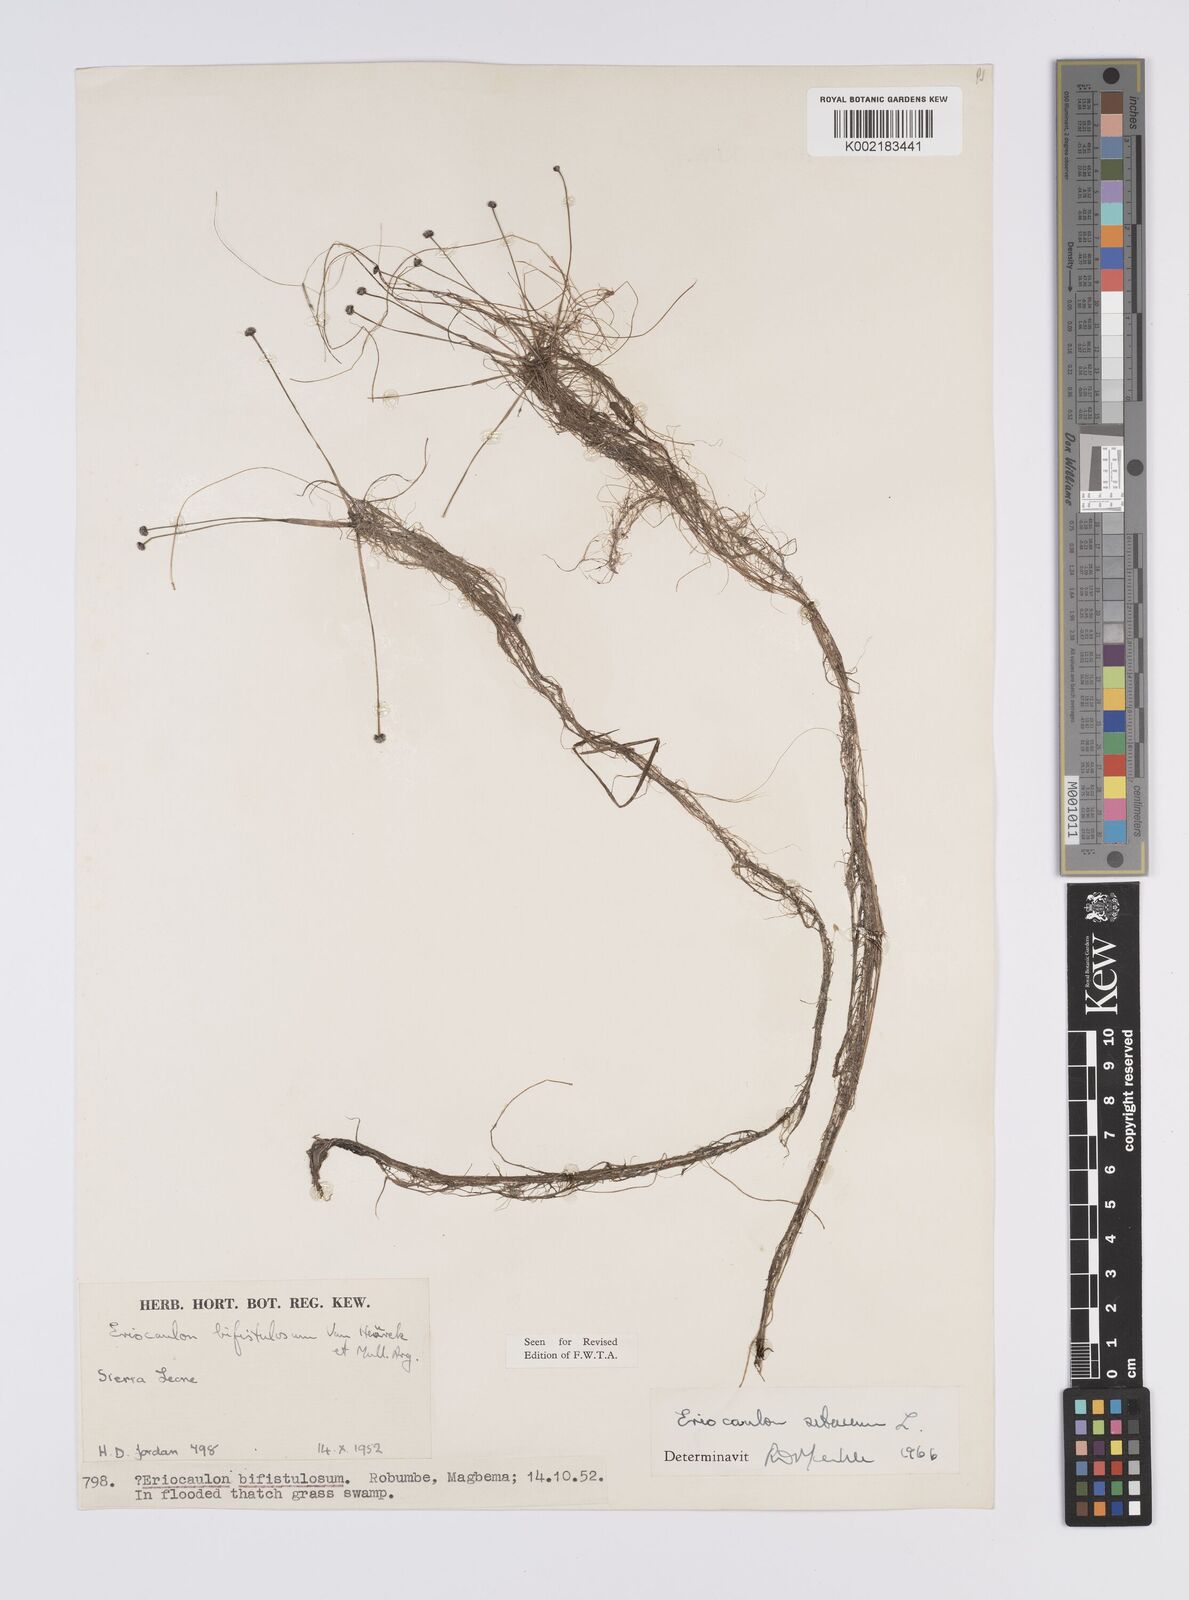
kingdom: Plantae
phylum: Tracheophyta
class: Liliopsida
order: Poales
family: Eriocaulaceae
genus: Eriocaulon
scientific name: Eriocaulon setaceum
